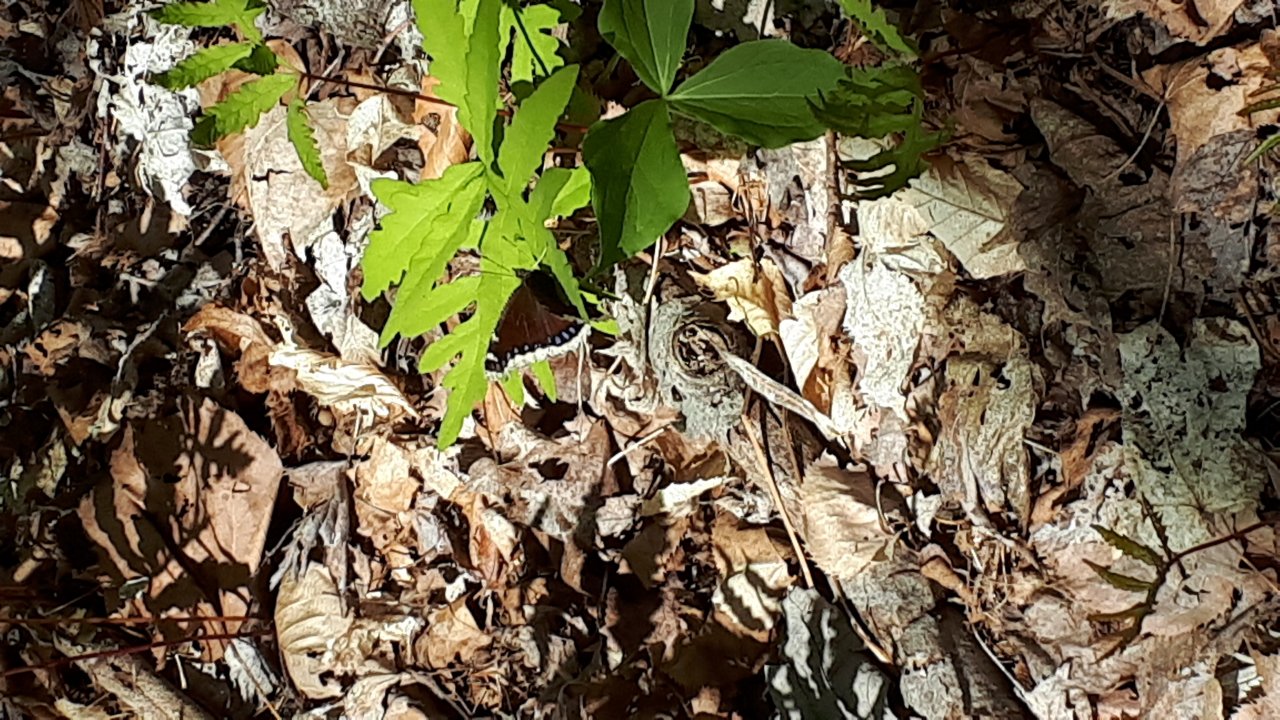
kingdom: Animalia
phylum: Arthropoda
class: Insecta
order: Lepidoptera
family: Nymphalidae
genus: Nymphalis
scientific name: Nymphalis antiopa
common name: Mourning Cloak
